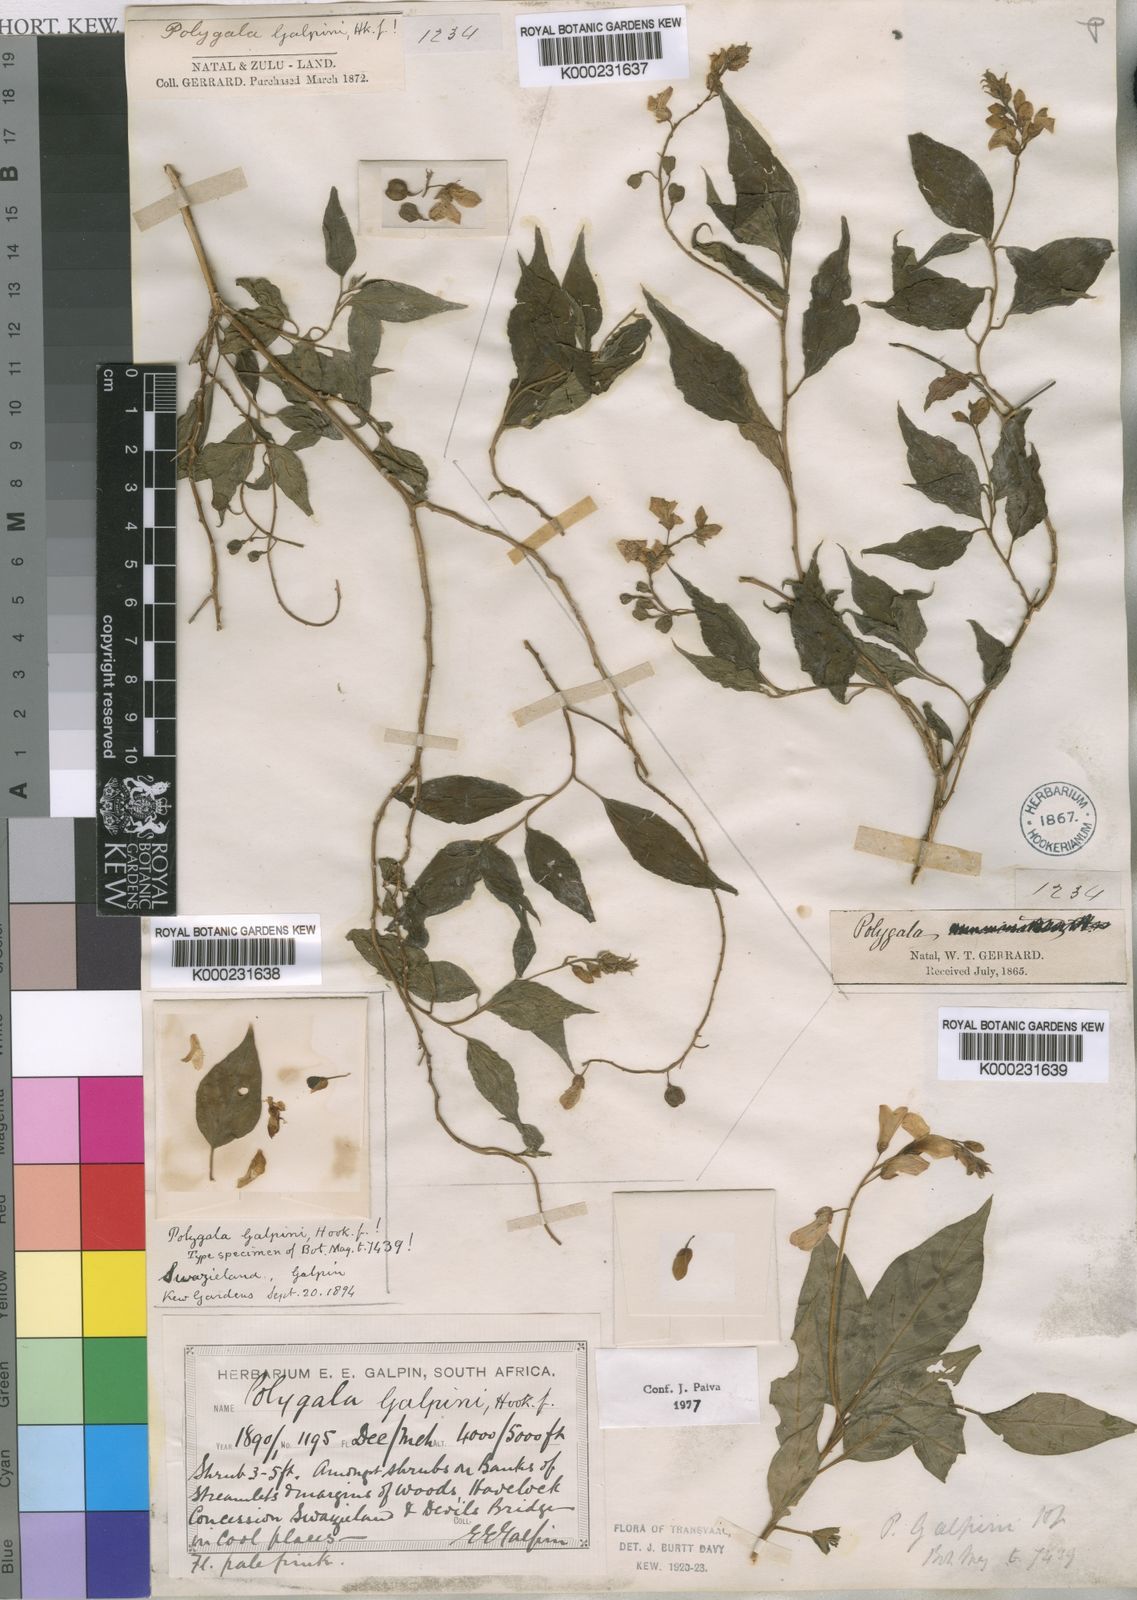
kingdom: Plantae
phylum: Tracheophyta
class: Magnoliopsida
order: Fabales
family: Polygalaceae
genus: Polygala
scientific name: Polygala galpinii
